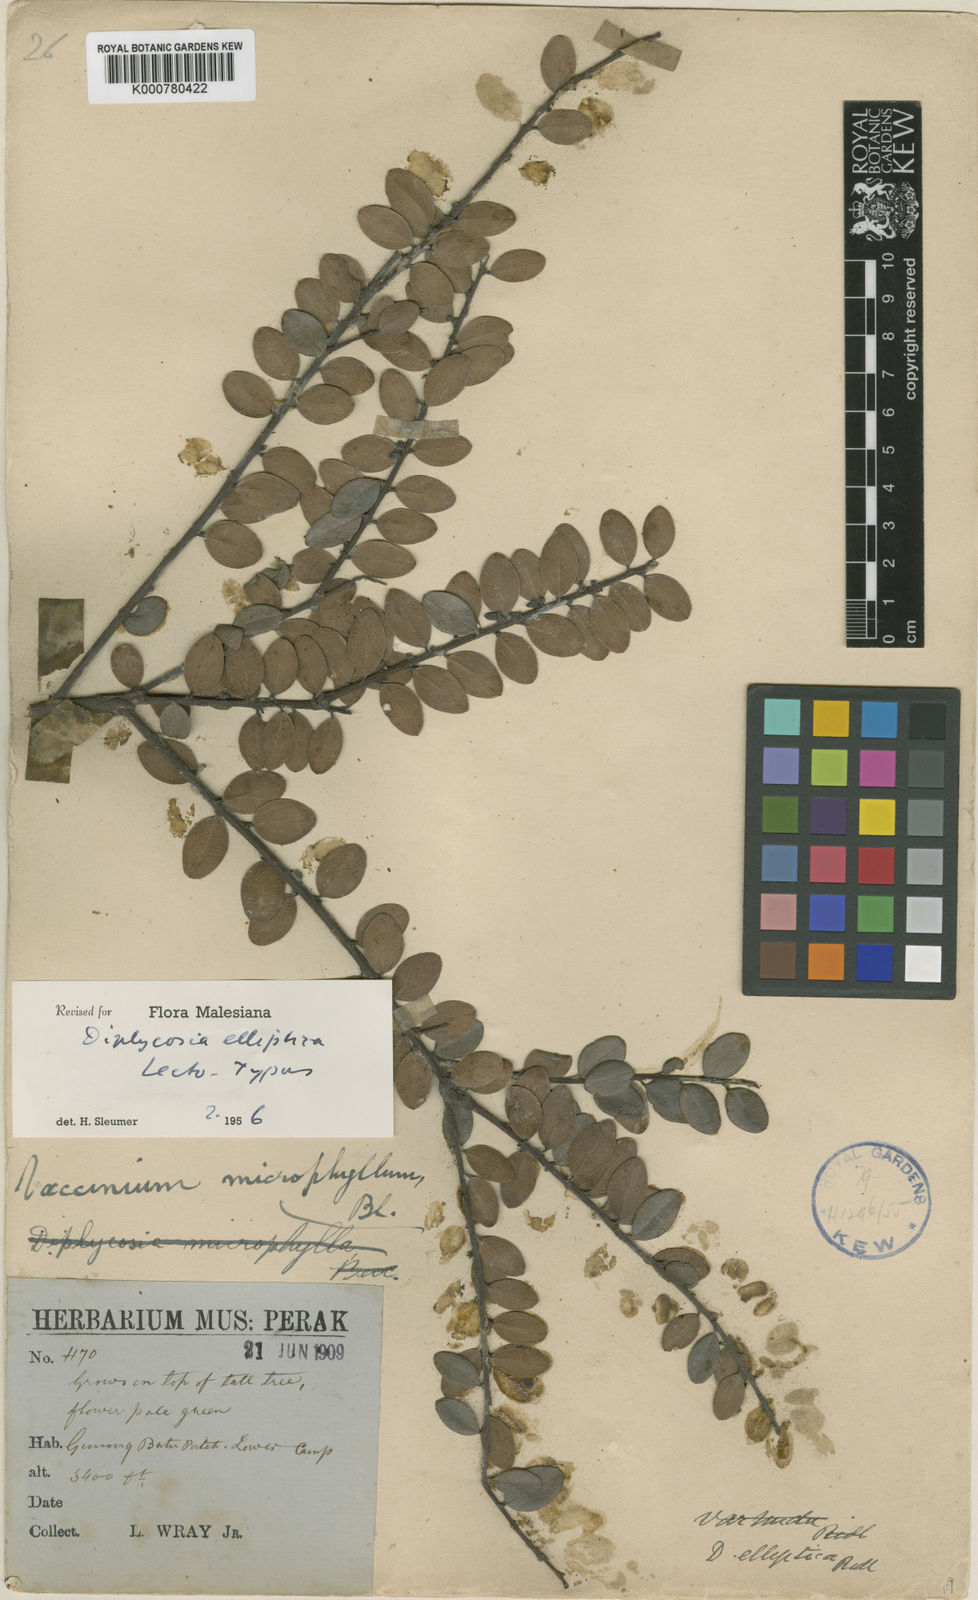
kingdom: Plantae
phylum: Tracheophyta
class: Magnoliopsida
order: Ericales
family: Ericaceae
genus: Gaultheria
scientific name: Gaultheria kingii
